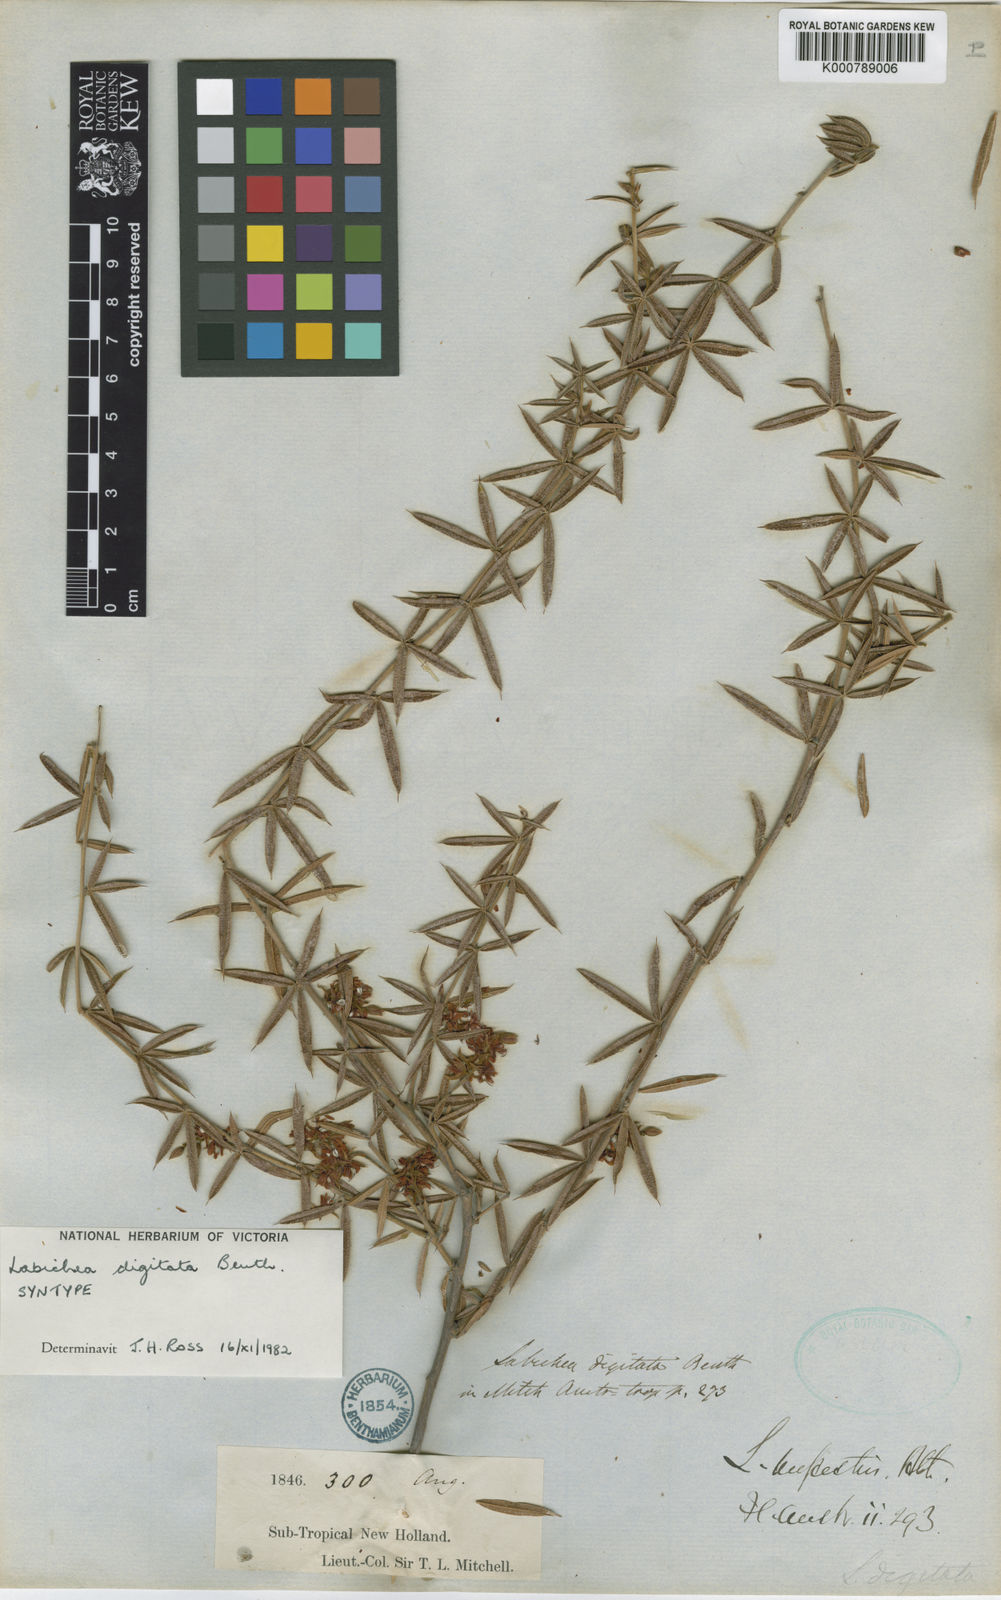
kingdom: Plantae
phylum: Tracheophyta
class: Magnoliopsida
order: Fabales
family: Fabaceae
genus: Labichea
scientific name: Labichea digitata
